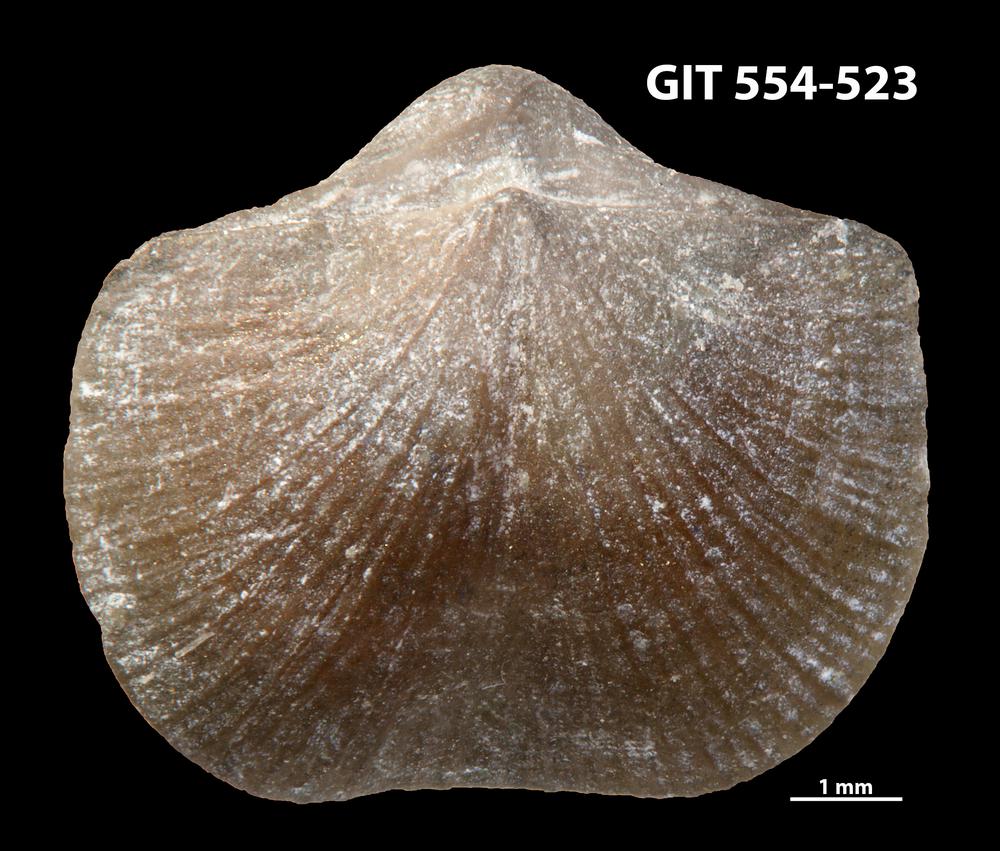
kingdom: Animalia
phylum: Brachiopoda
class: Rhynchonellata
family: Dalmanellidae
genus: Isorthis
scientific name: Isorthis parvulus
